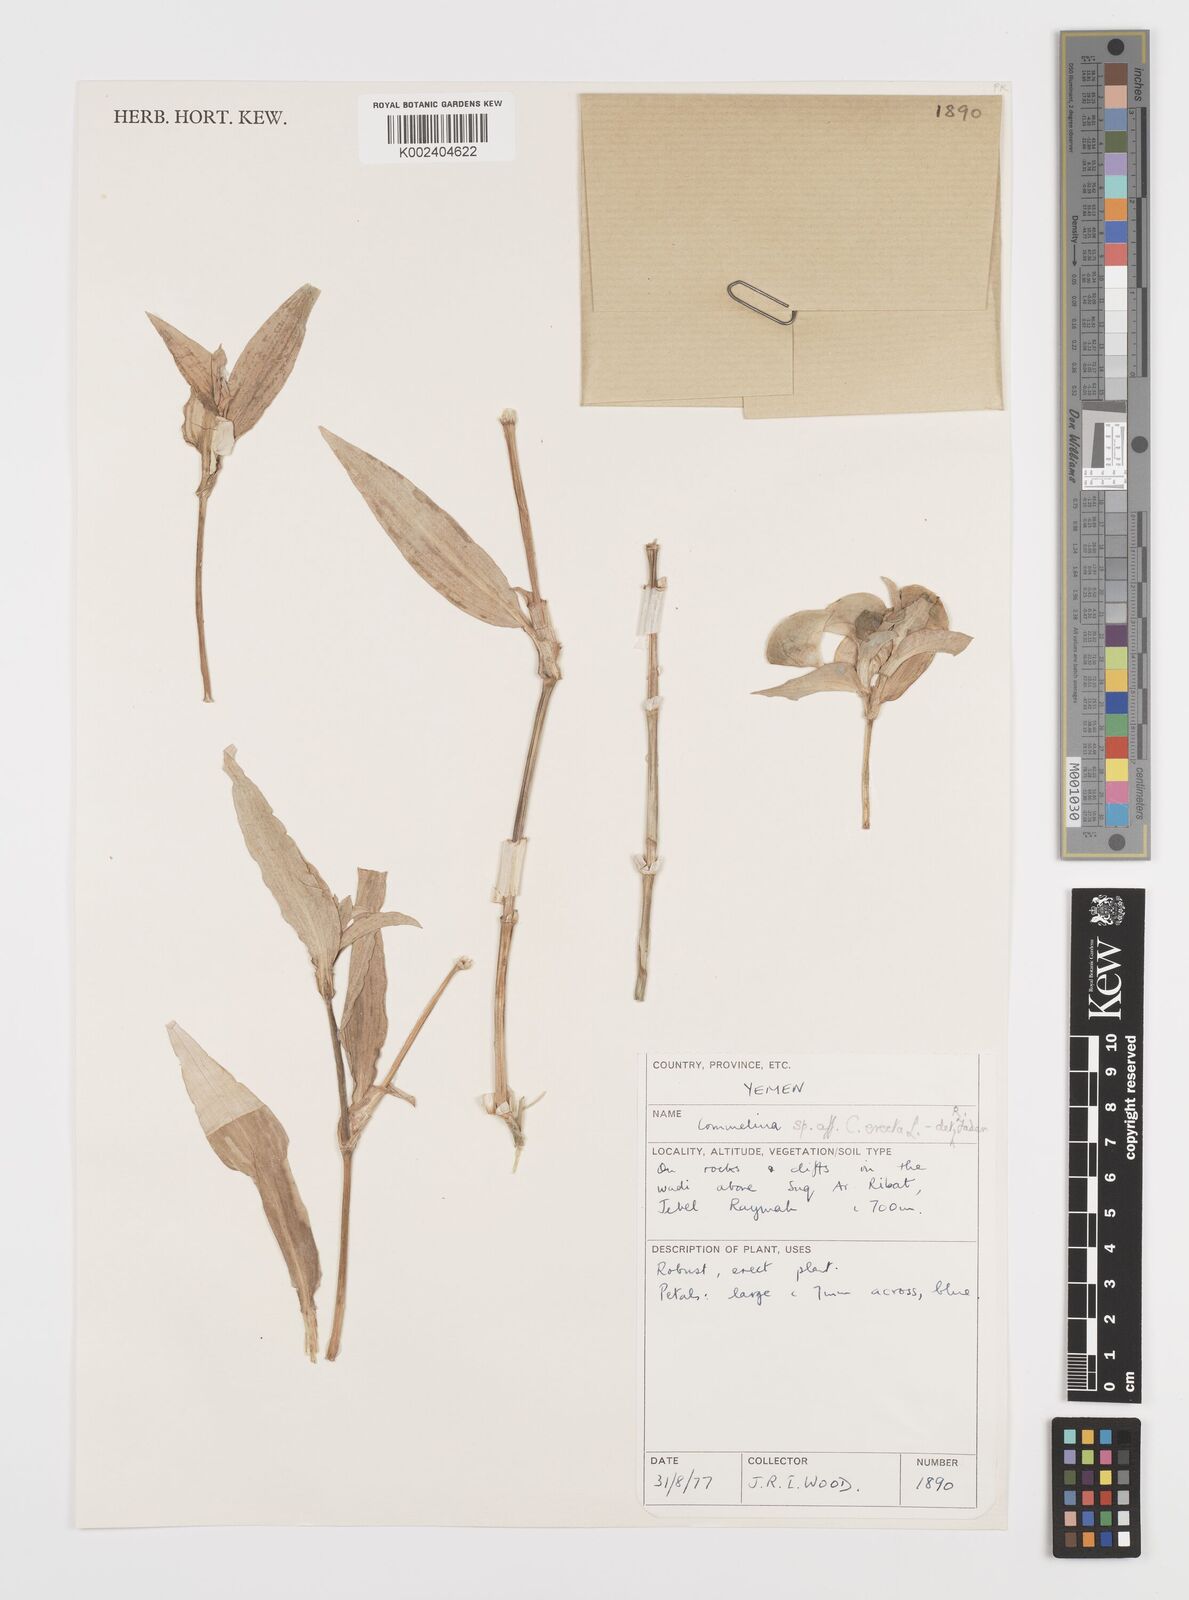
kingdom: Plantae
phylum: Tracheophyta
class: Liliopsida
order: Commelinales
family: Commelinaceae
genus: Commelina
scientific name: Commelina erecta
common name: Blousel blommetjie
